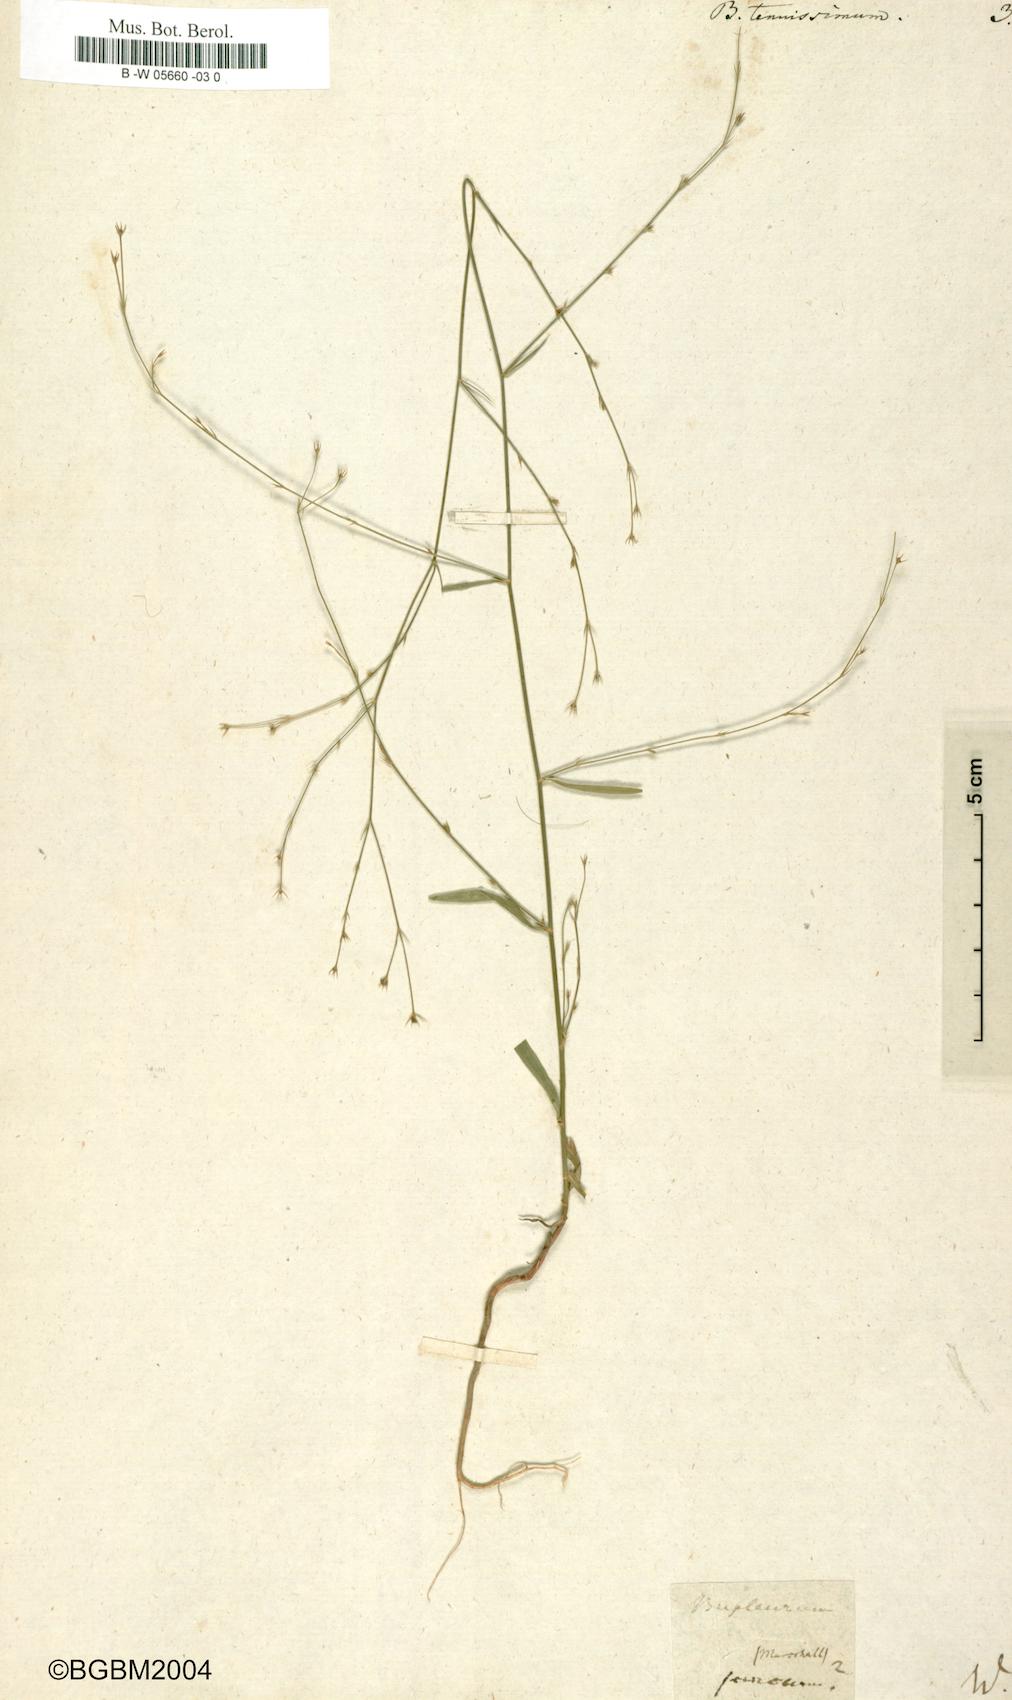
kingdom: Plantae
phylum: Tracheophyta
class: Magnoliopsida
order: Apiales
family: Apiaceae
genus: Bupleurum
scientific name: Bupleurum tenuissimum
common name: Slender hare's-ear
